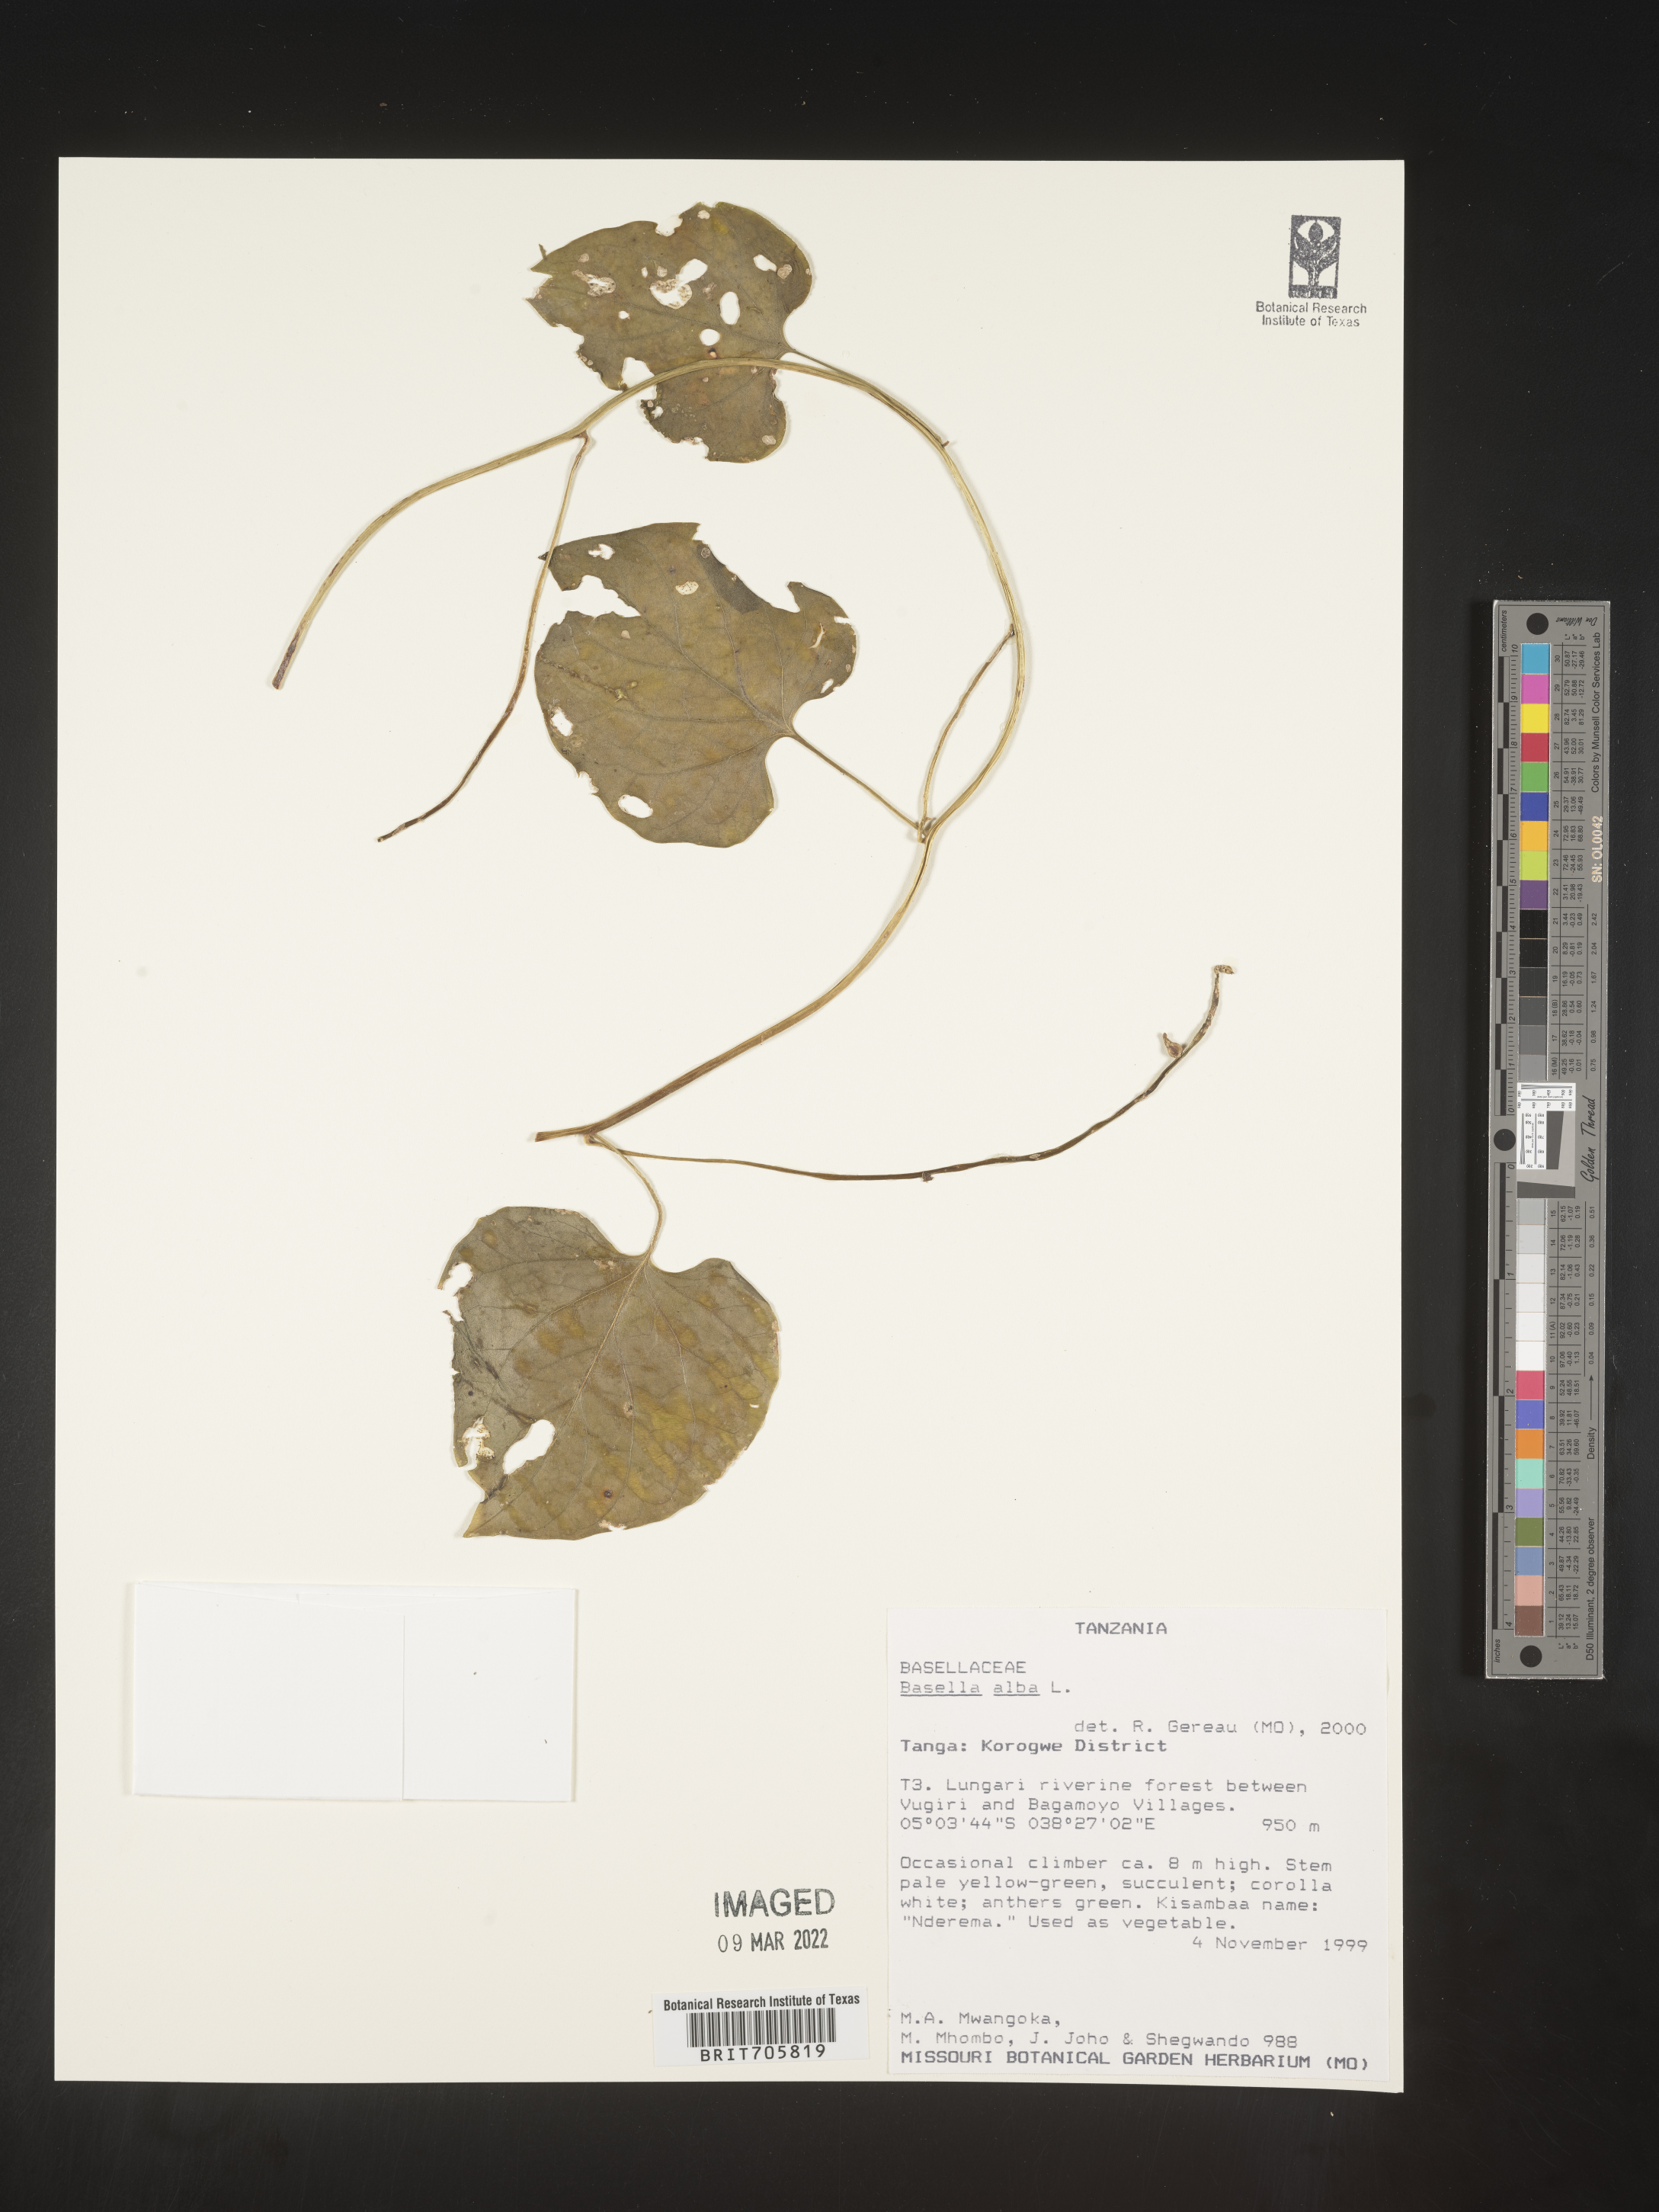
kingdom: Plantae
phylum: Tracheophyta
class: Magnoliopsida
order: Caryophyllales
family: Basellaceae
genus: Basella
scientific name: Basella
